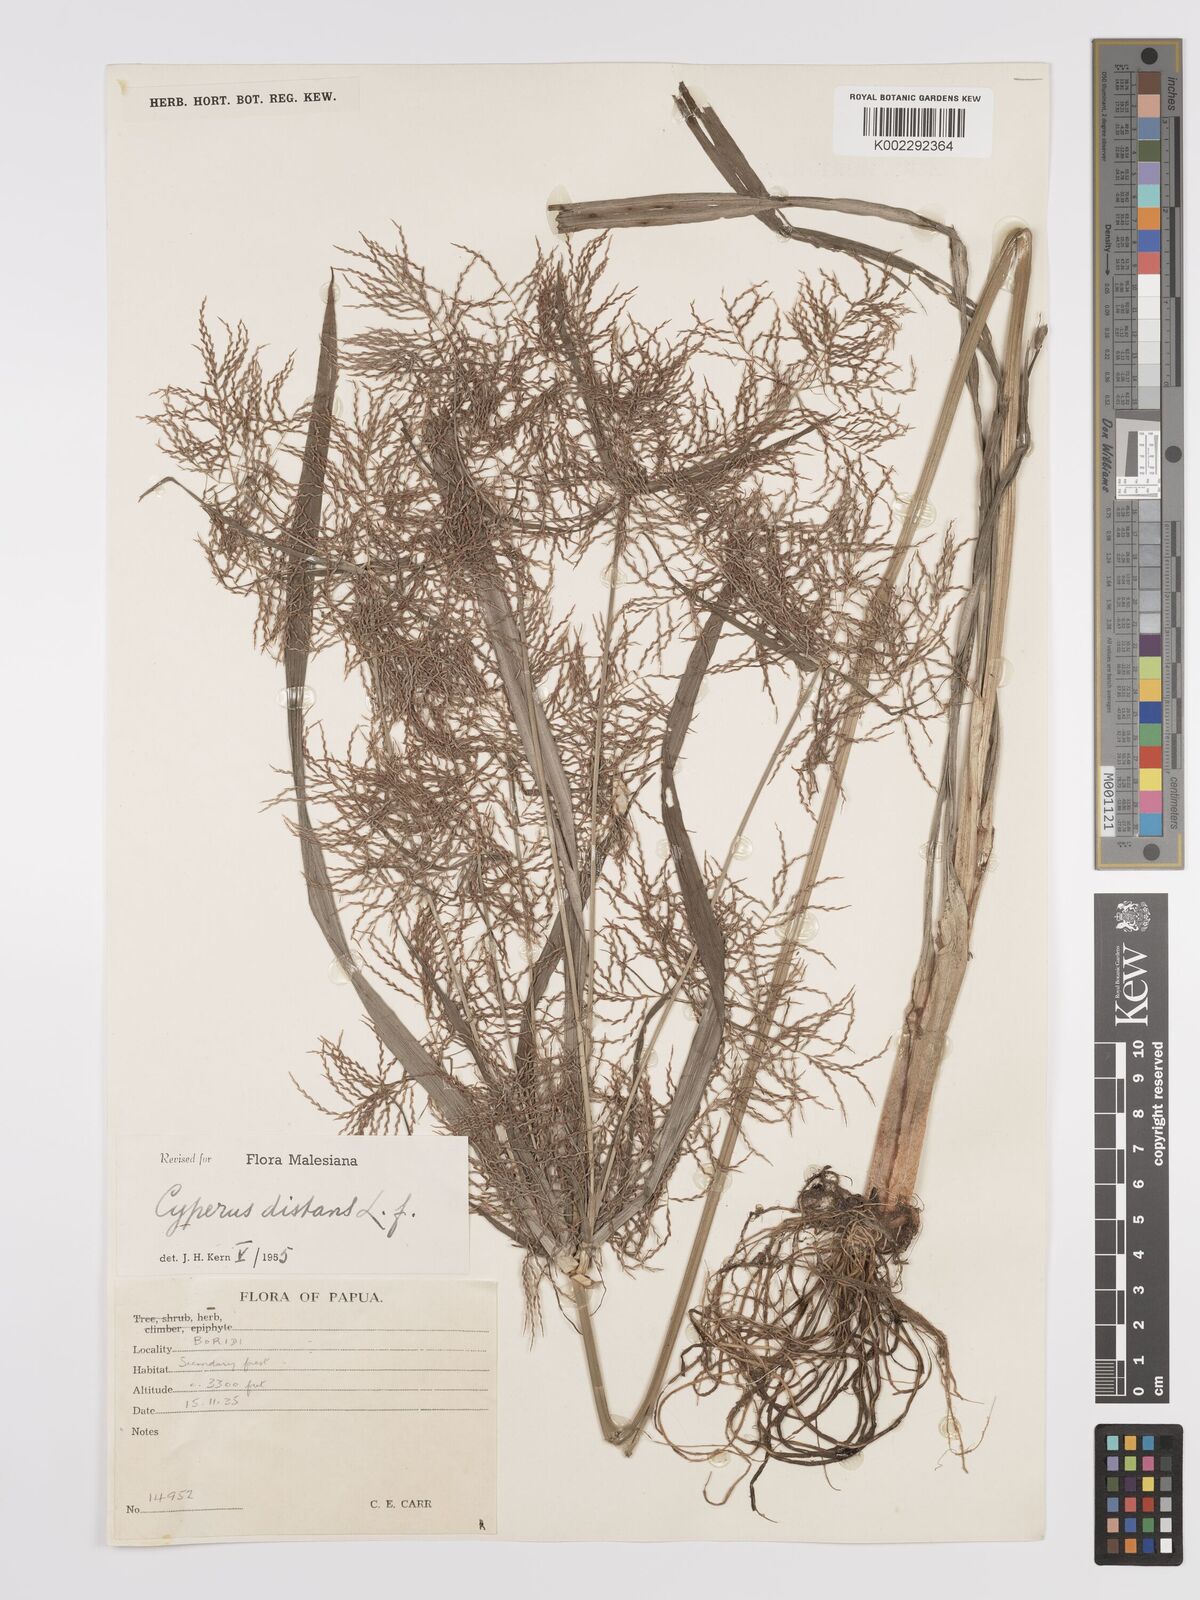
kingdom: Plantae
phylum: Tracheophyta
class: Liliopsida
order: Poales
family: Cyperaceae
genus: Cyperus
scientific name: Cyperus distans
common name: Slender cyperus
